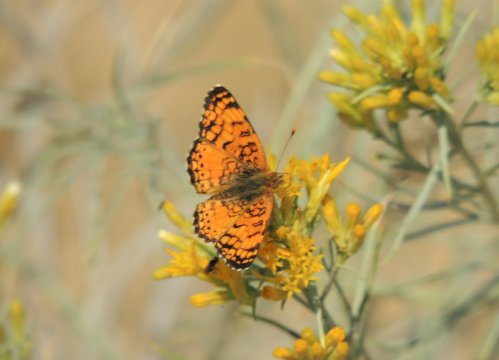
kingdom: Animalia
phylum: Arthropoda
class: Insecta
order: Lepidoptera
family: Nymphalidae
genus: Eresia
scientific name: Eresia aveyrona
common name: Mylitta Crescent
